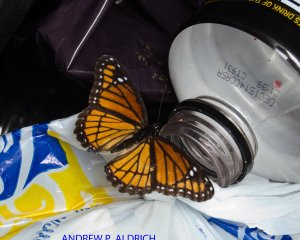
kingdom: Animalia
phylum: Arthropoda
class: Insecta
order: Lepidoptera
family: Nymphalidae
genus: Limenitis
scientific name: Limenitis archippus
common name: Viceroy
